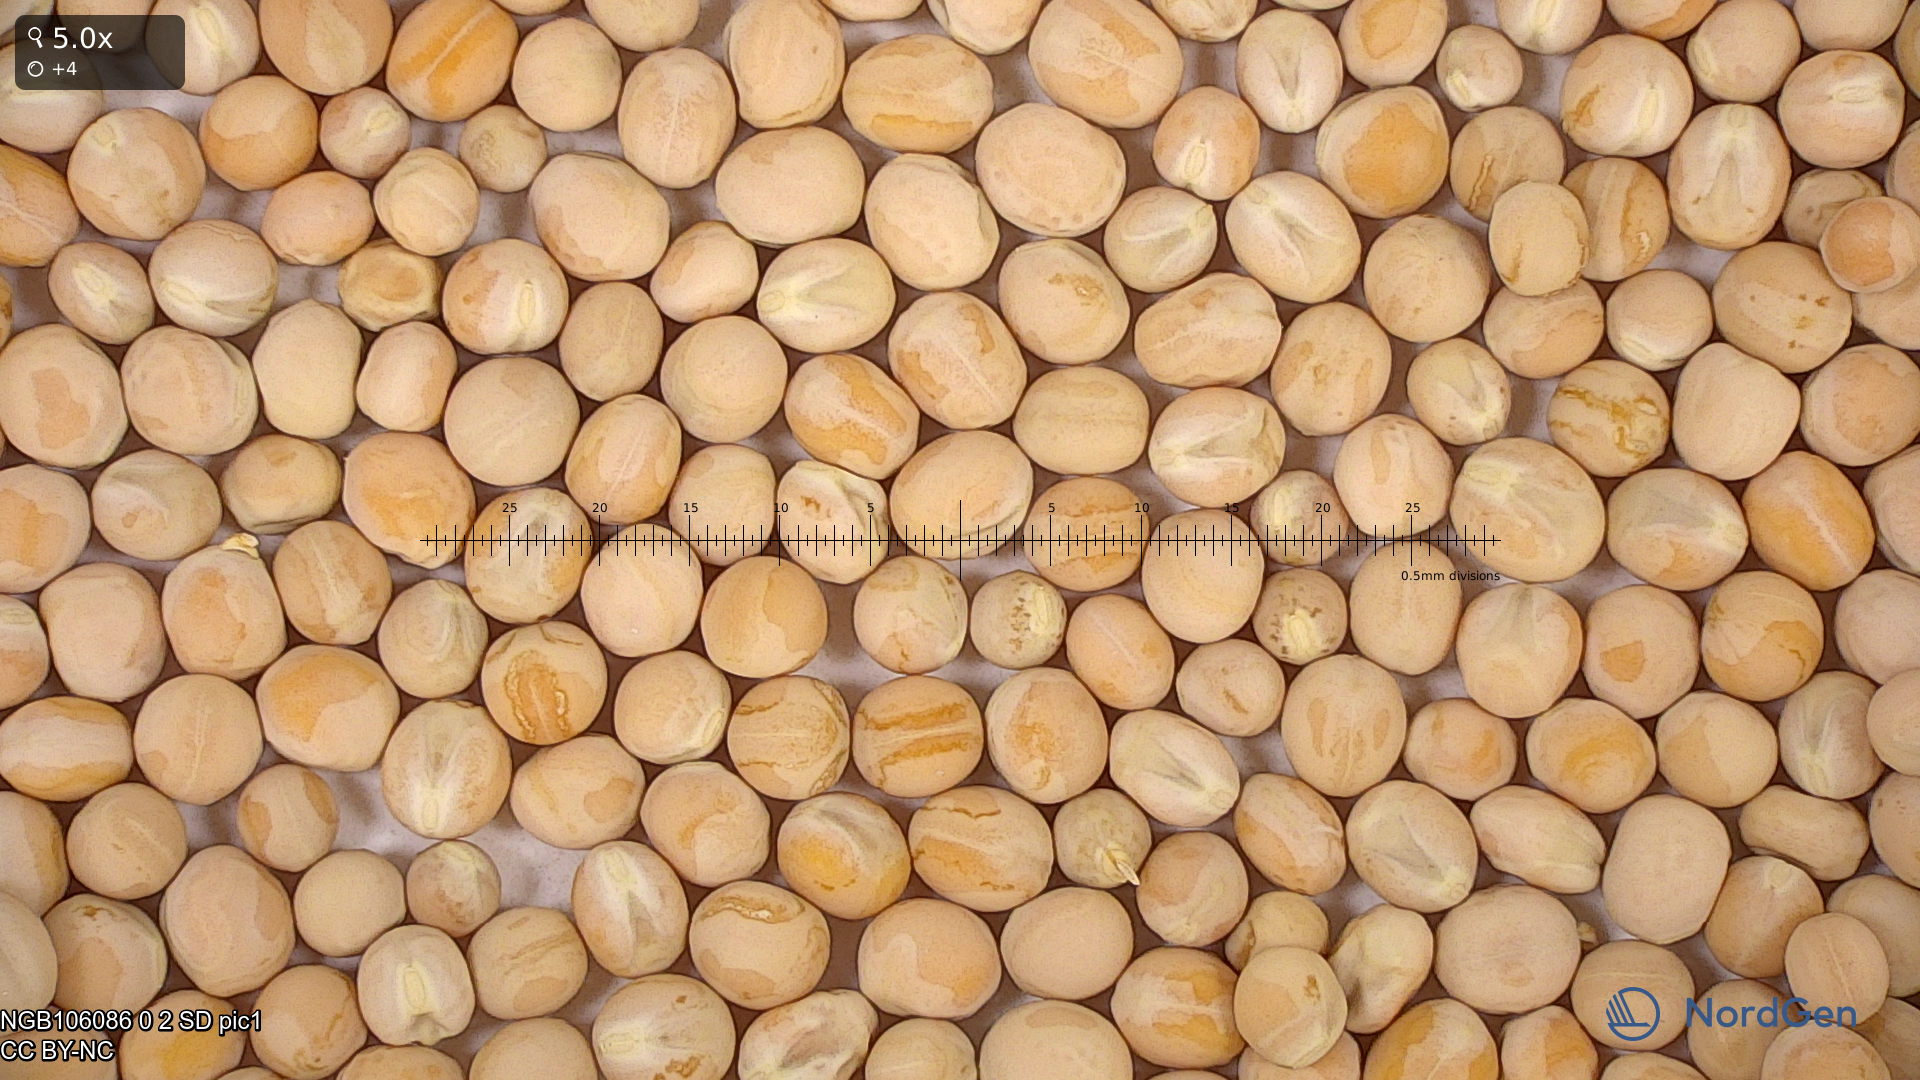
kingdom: Plantae
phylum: Tracheophyta
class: Magnoliopsida
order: Fabales
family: Fabaceae
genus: Lathyrus
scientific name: Lathyrus oleraceus
